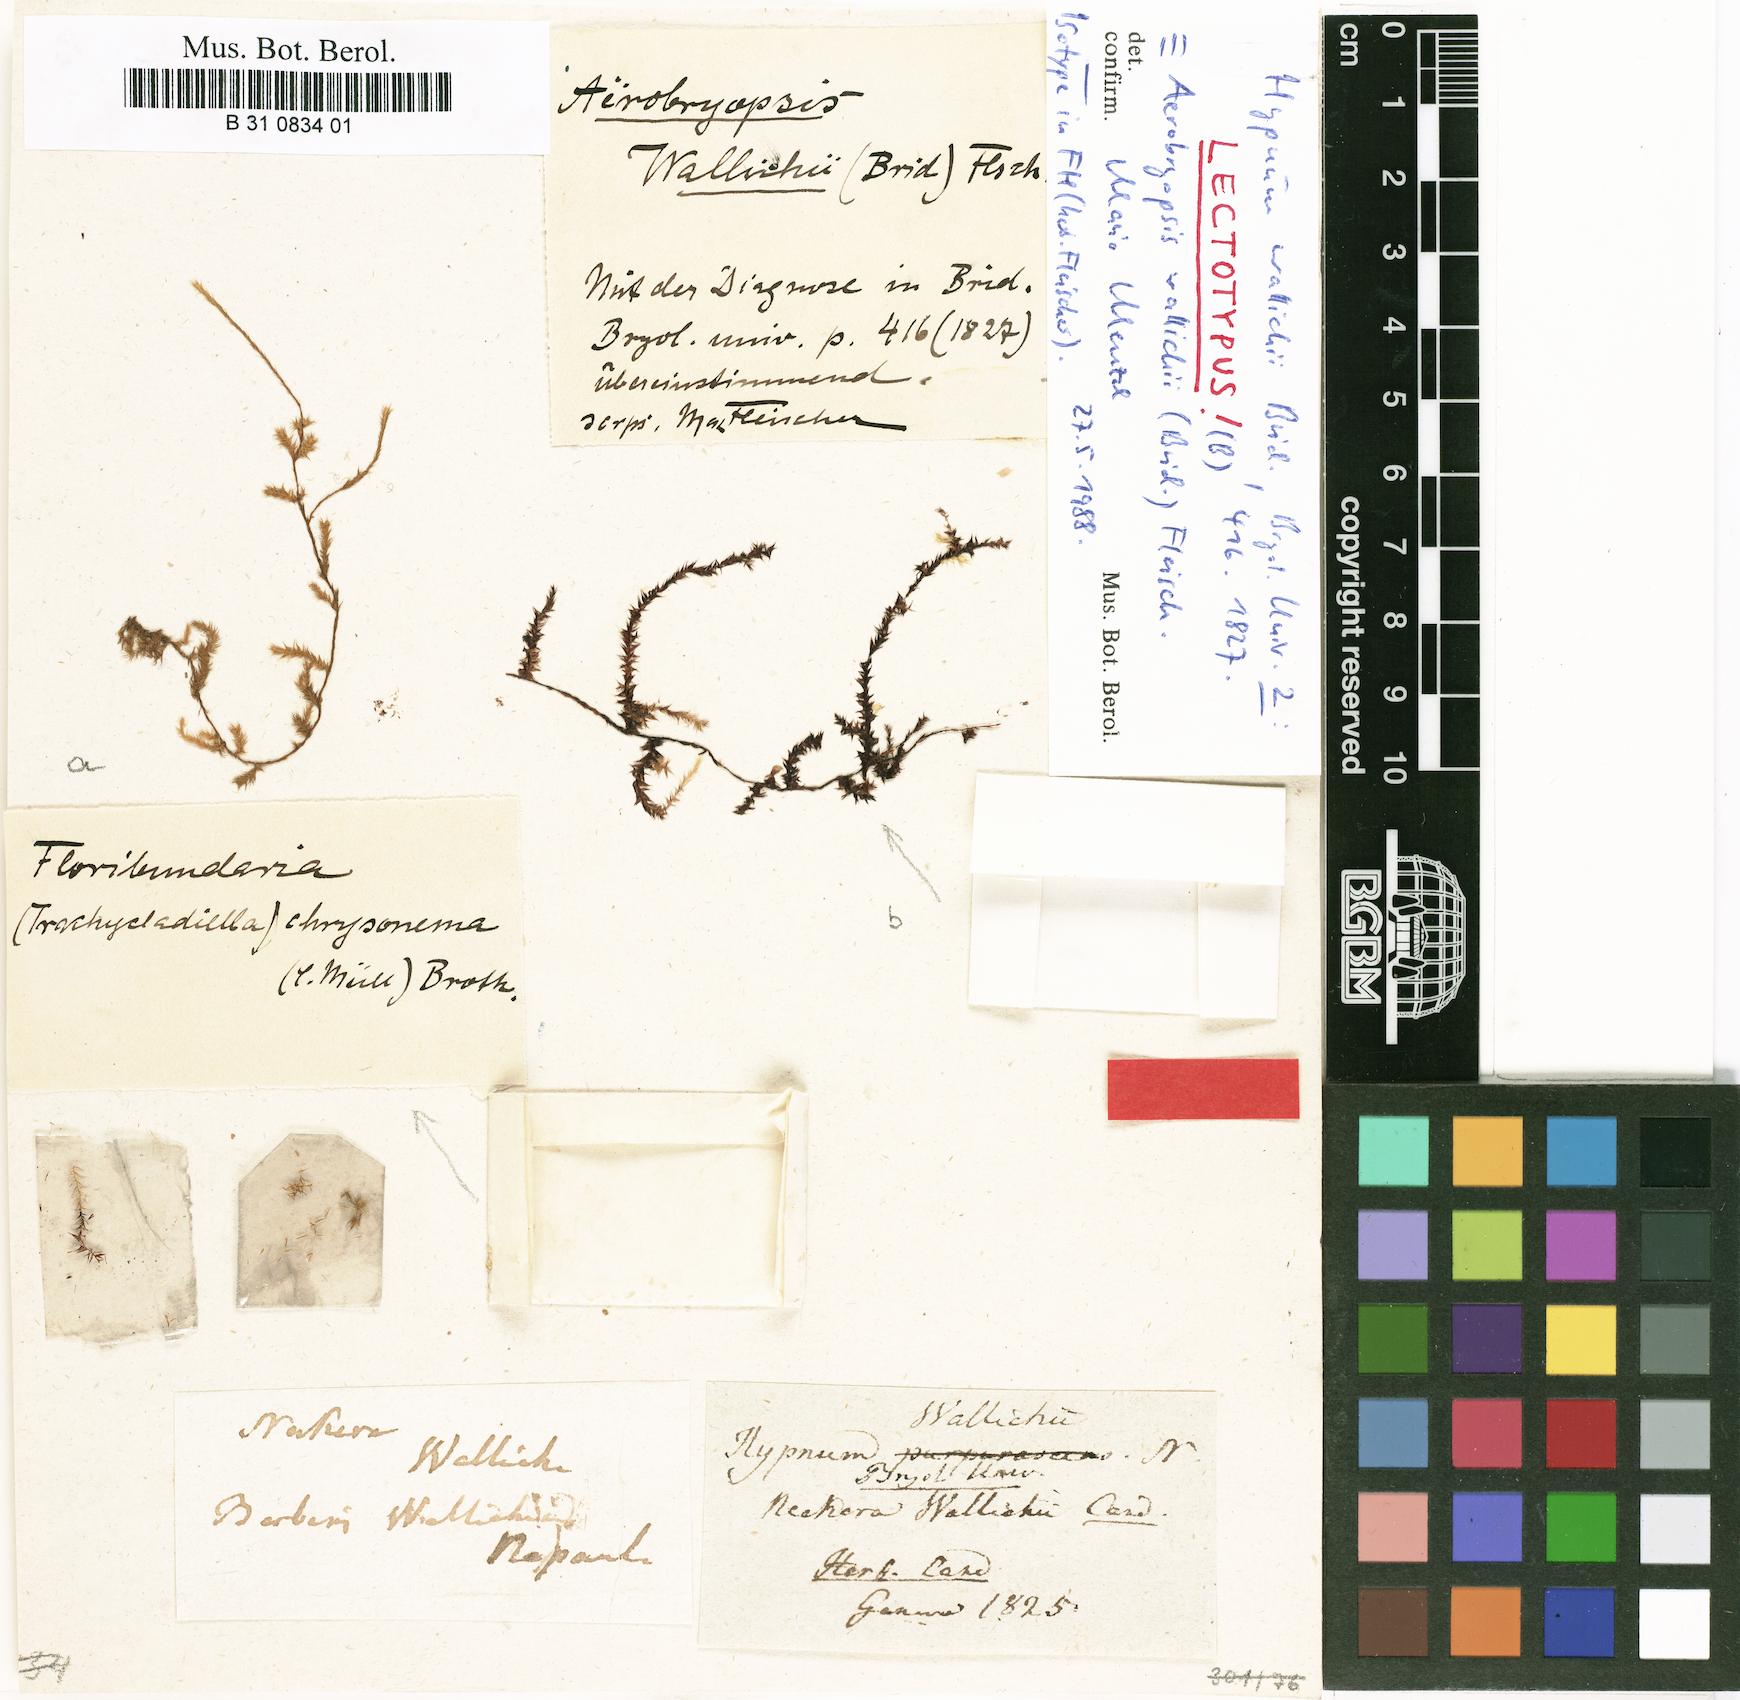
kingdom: Plantae
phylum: Bryophyta
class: Bryopsida
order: Hypnales
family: Meteoriaceae
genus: Pseudotrachypus
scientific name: Pseudotrachypus wallichii
